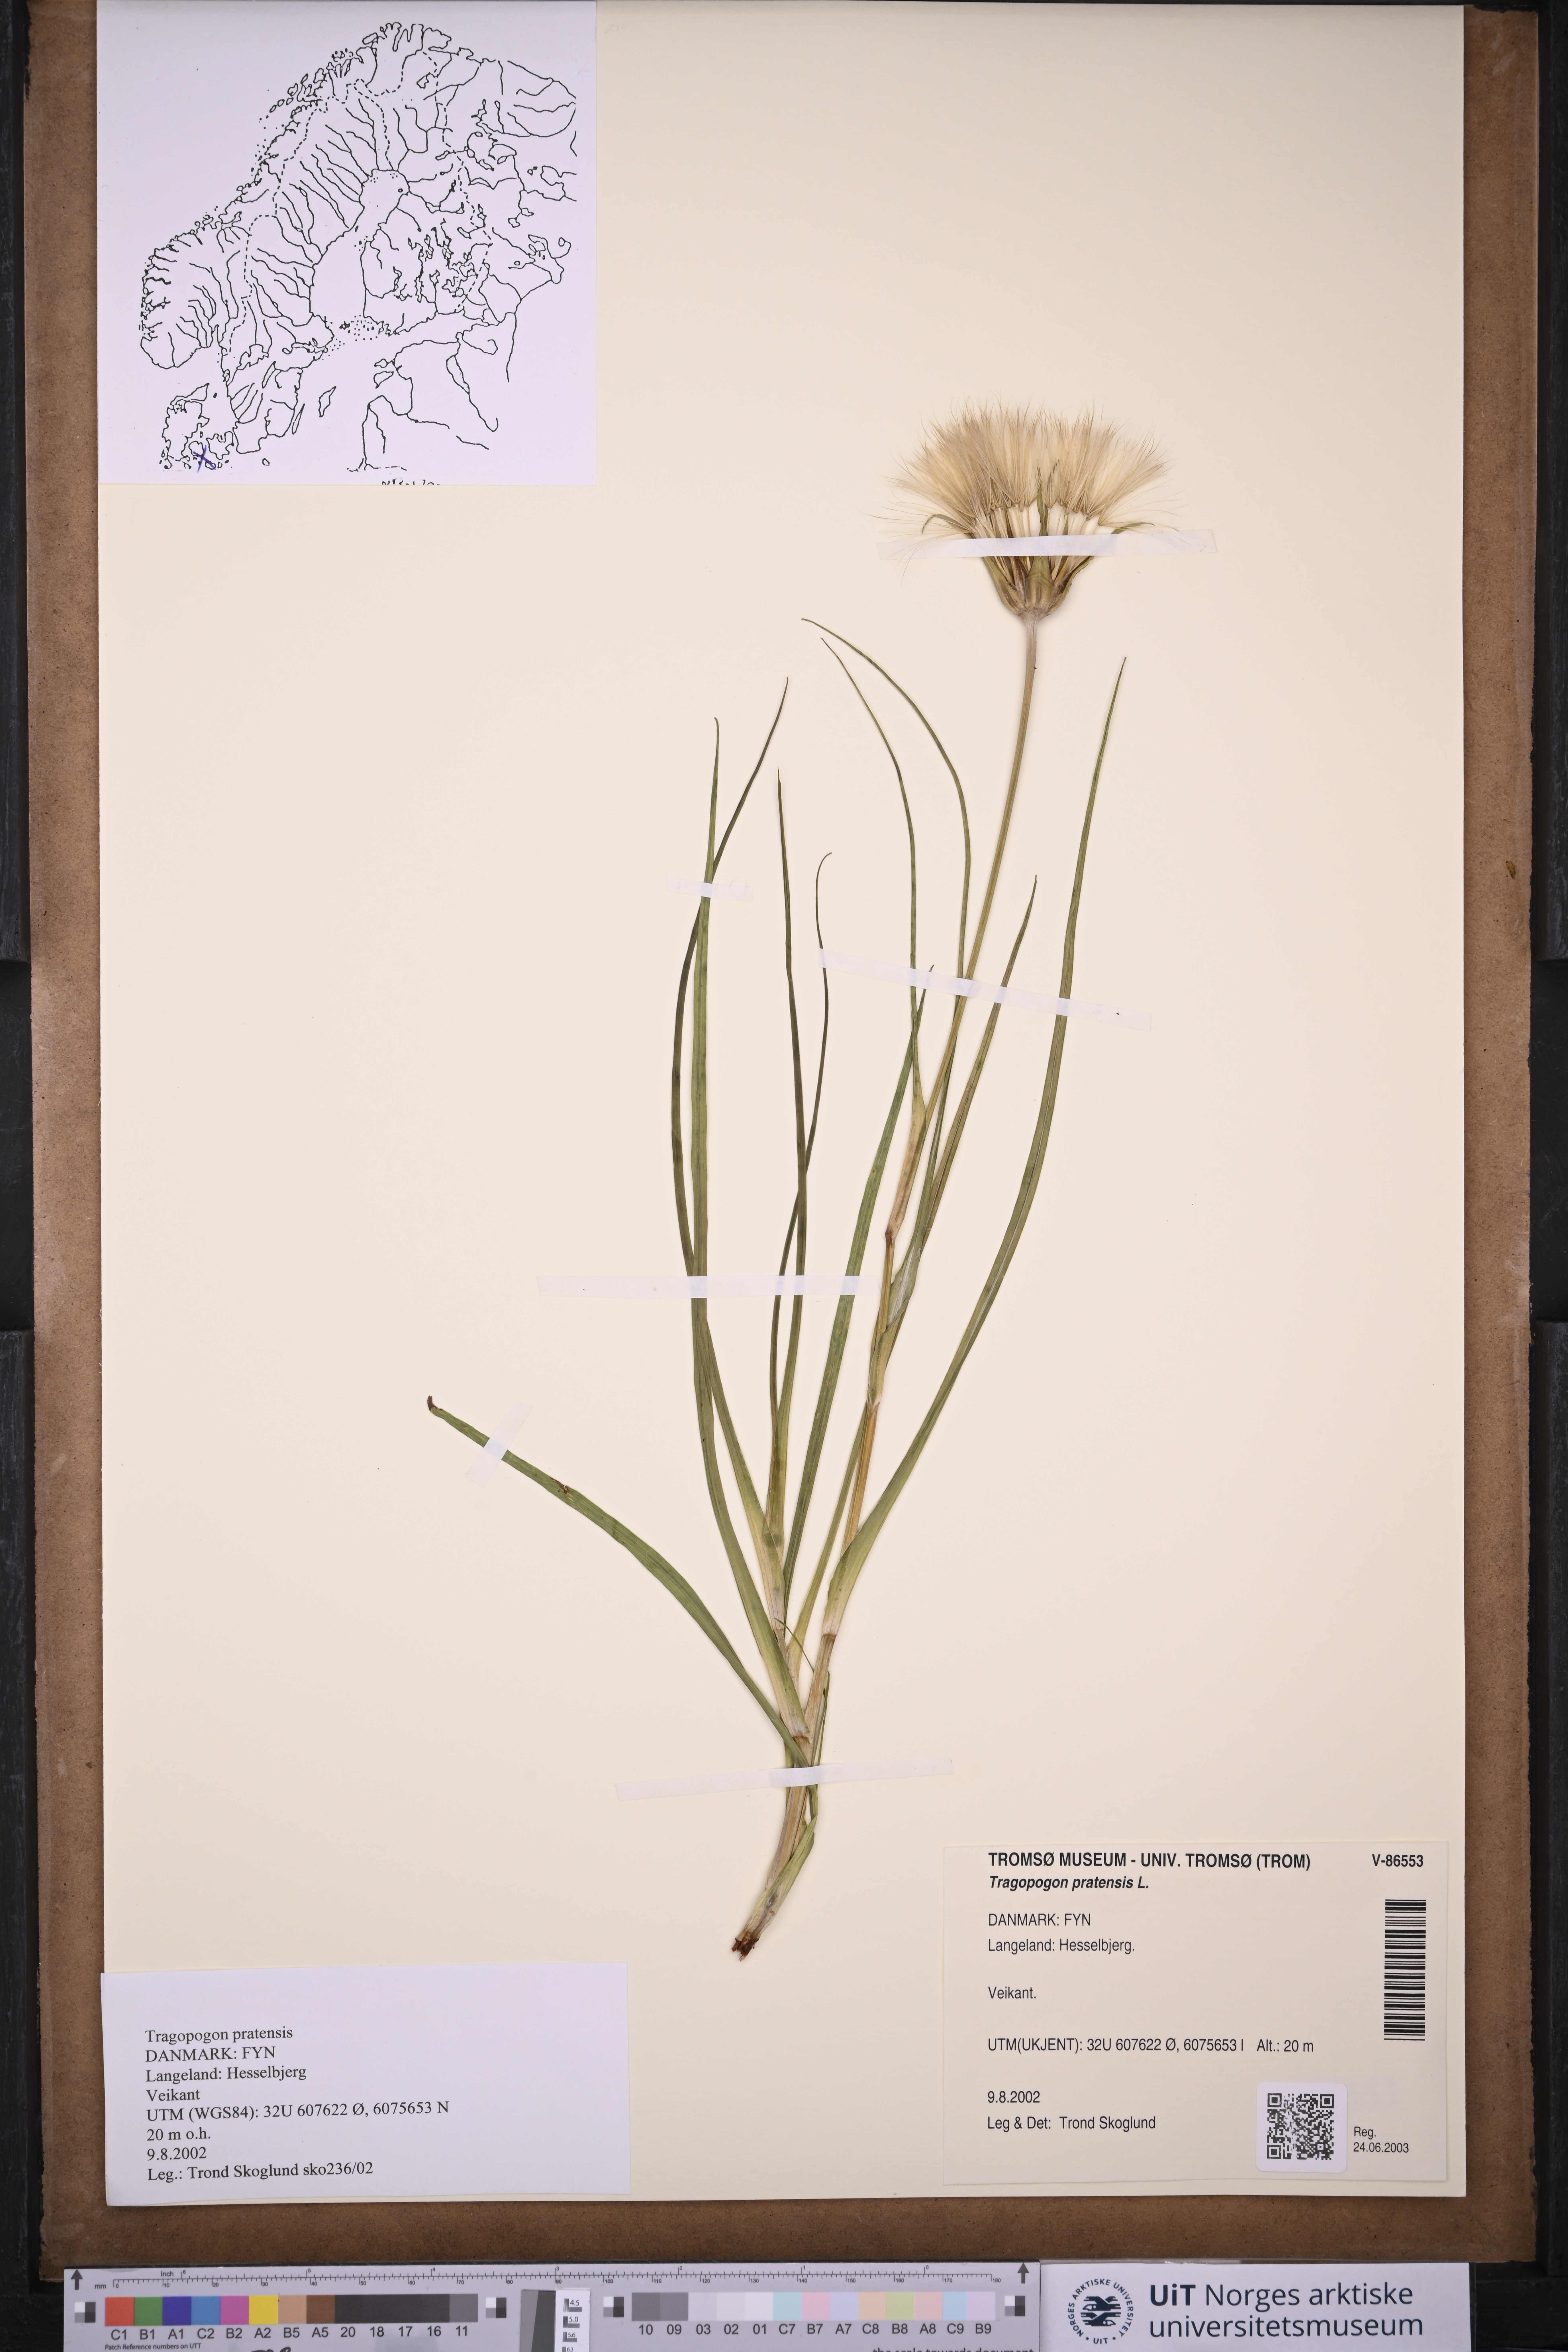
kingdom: Plantae
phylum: Tracheophyta
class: Magnoliopsida
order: Asterales
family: Asteraceae
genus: Tragopogon
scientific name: Tragopogon pratensis
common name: Goat's-beard
